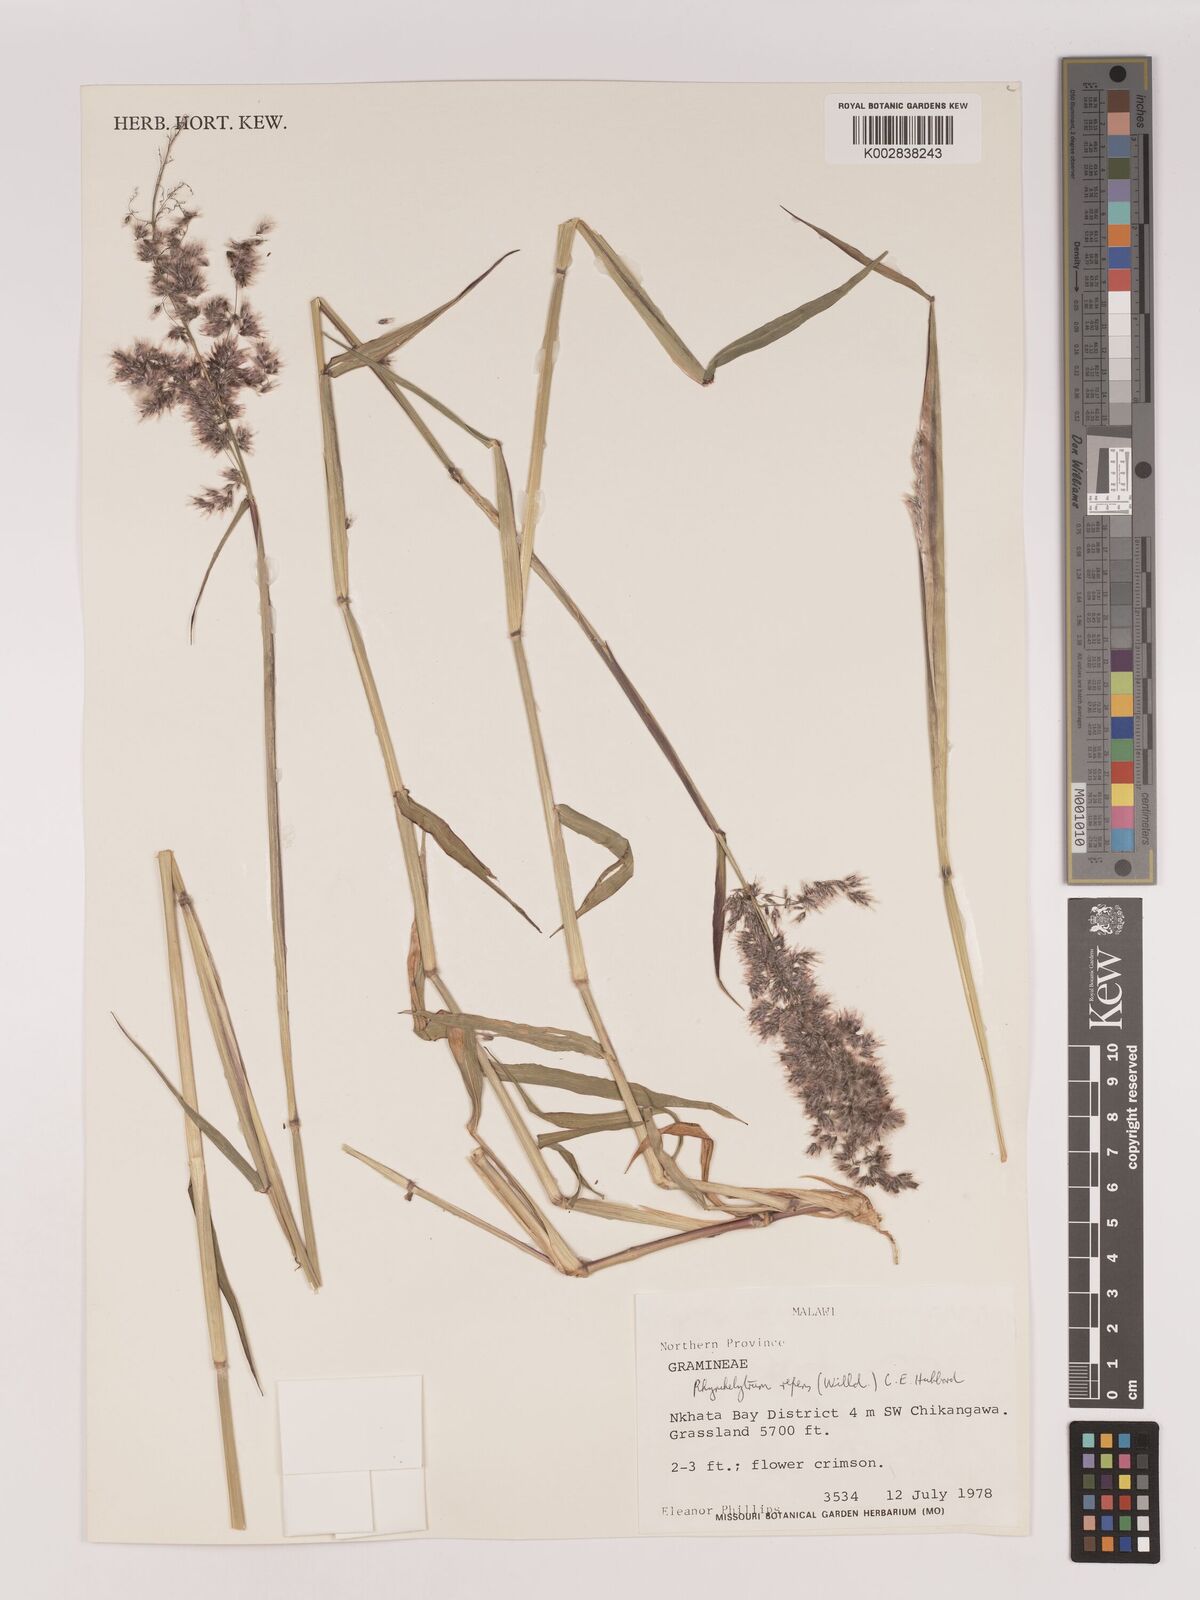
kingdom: Plantae
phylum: Tracheophyta
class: Liliopsida
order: Poales
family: Poaceae
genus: Melinis
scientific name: Melinis repens
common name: Rose natal grass
